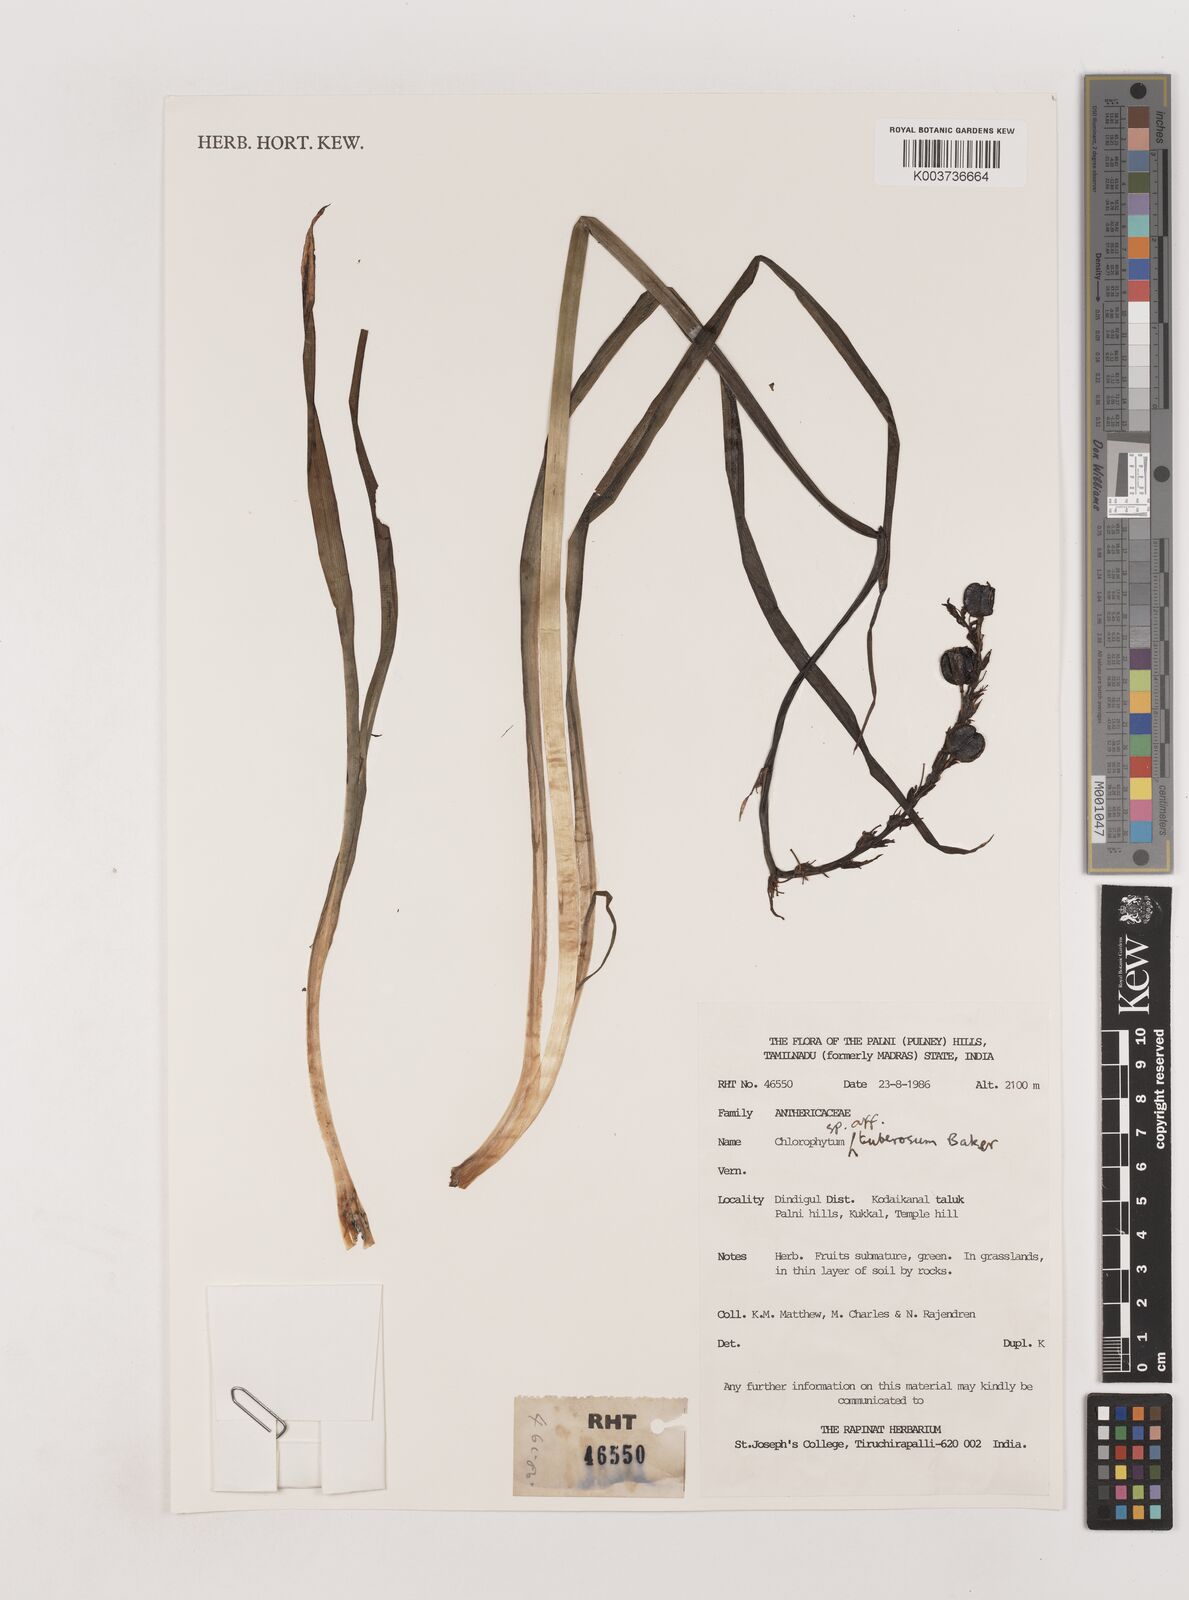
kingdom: Plantae
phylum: Tracheophyta
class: Liliopsida
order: Asparagales
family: Asparagaceae
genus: Chlorophytum
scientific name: Chlorophytum tuberosum
